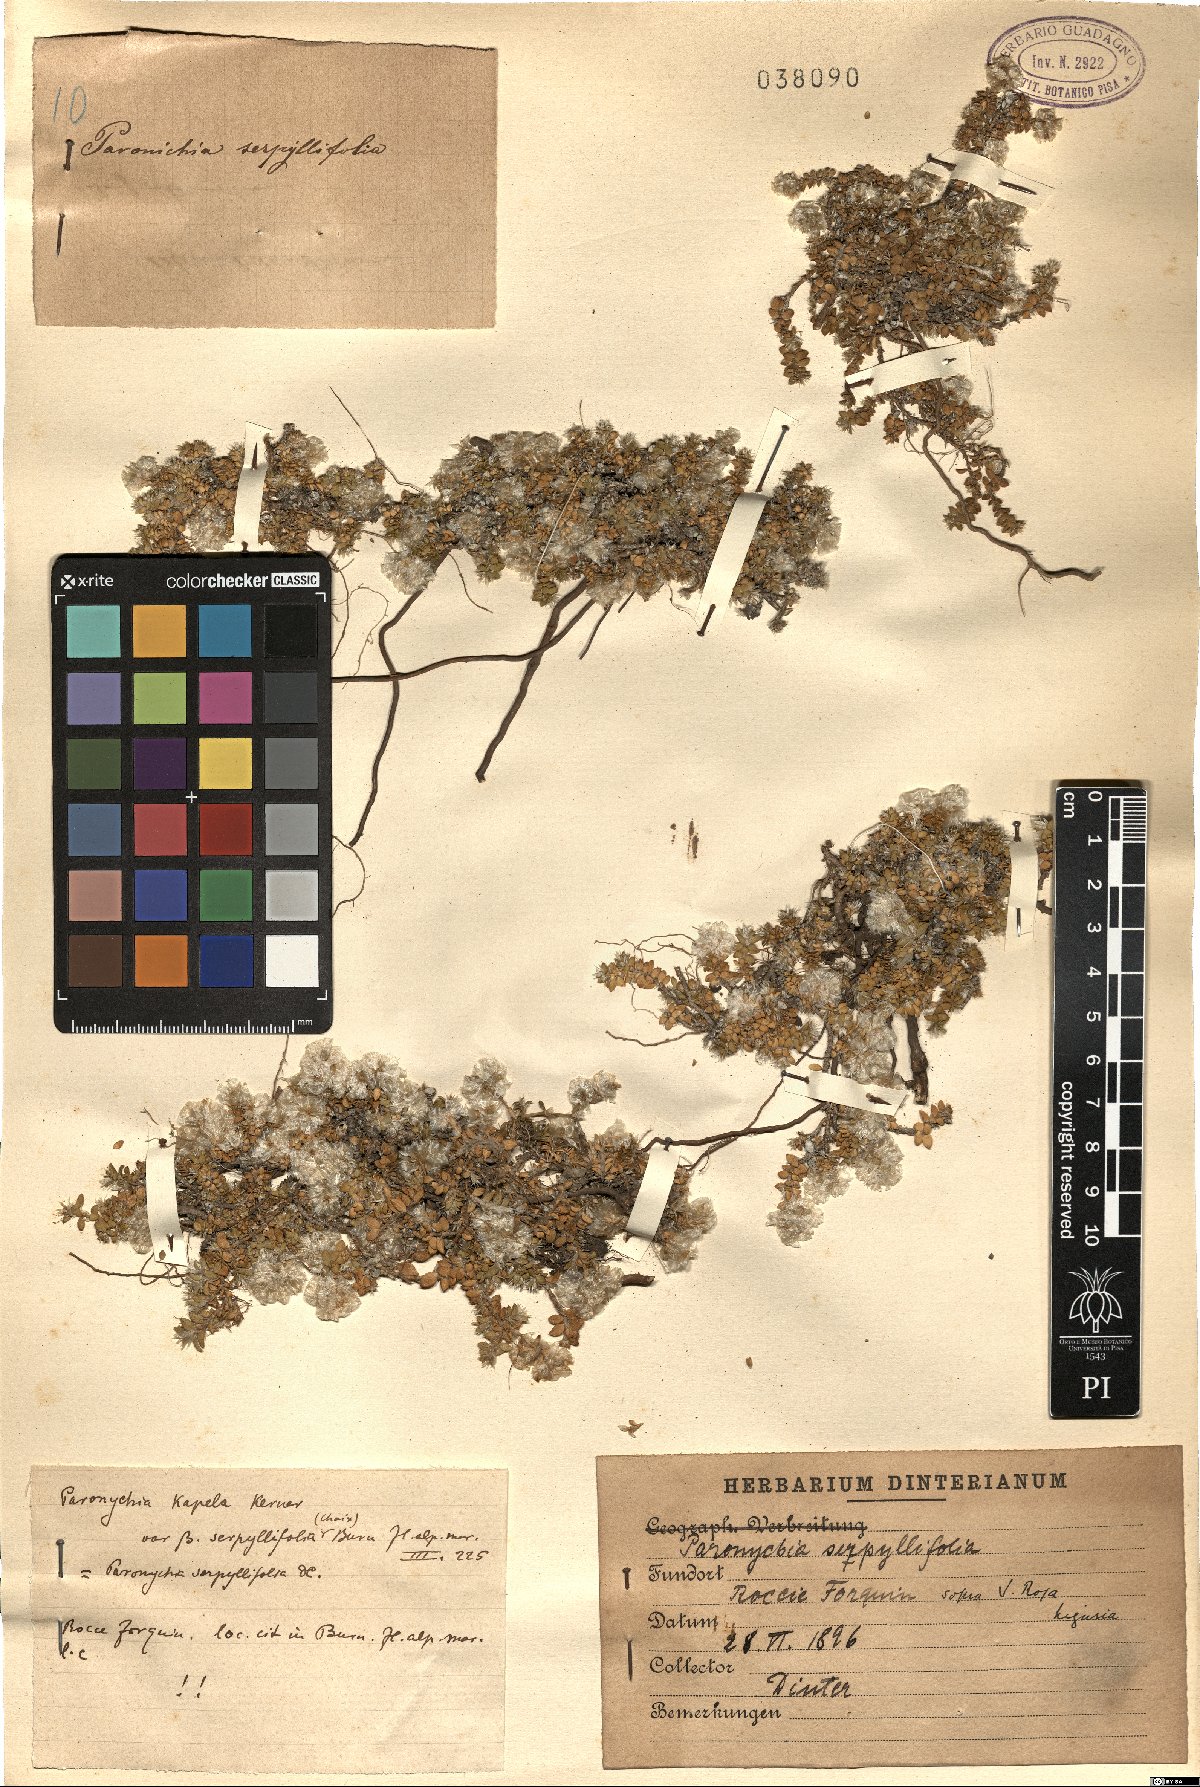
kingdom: Plantae
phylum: Tracheophyta
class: Magnoliopsida
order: Caryophyllales
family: Caryophyllaceae
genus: Paronychia
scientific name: Paronychia kapela
